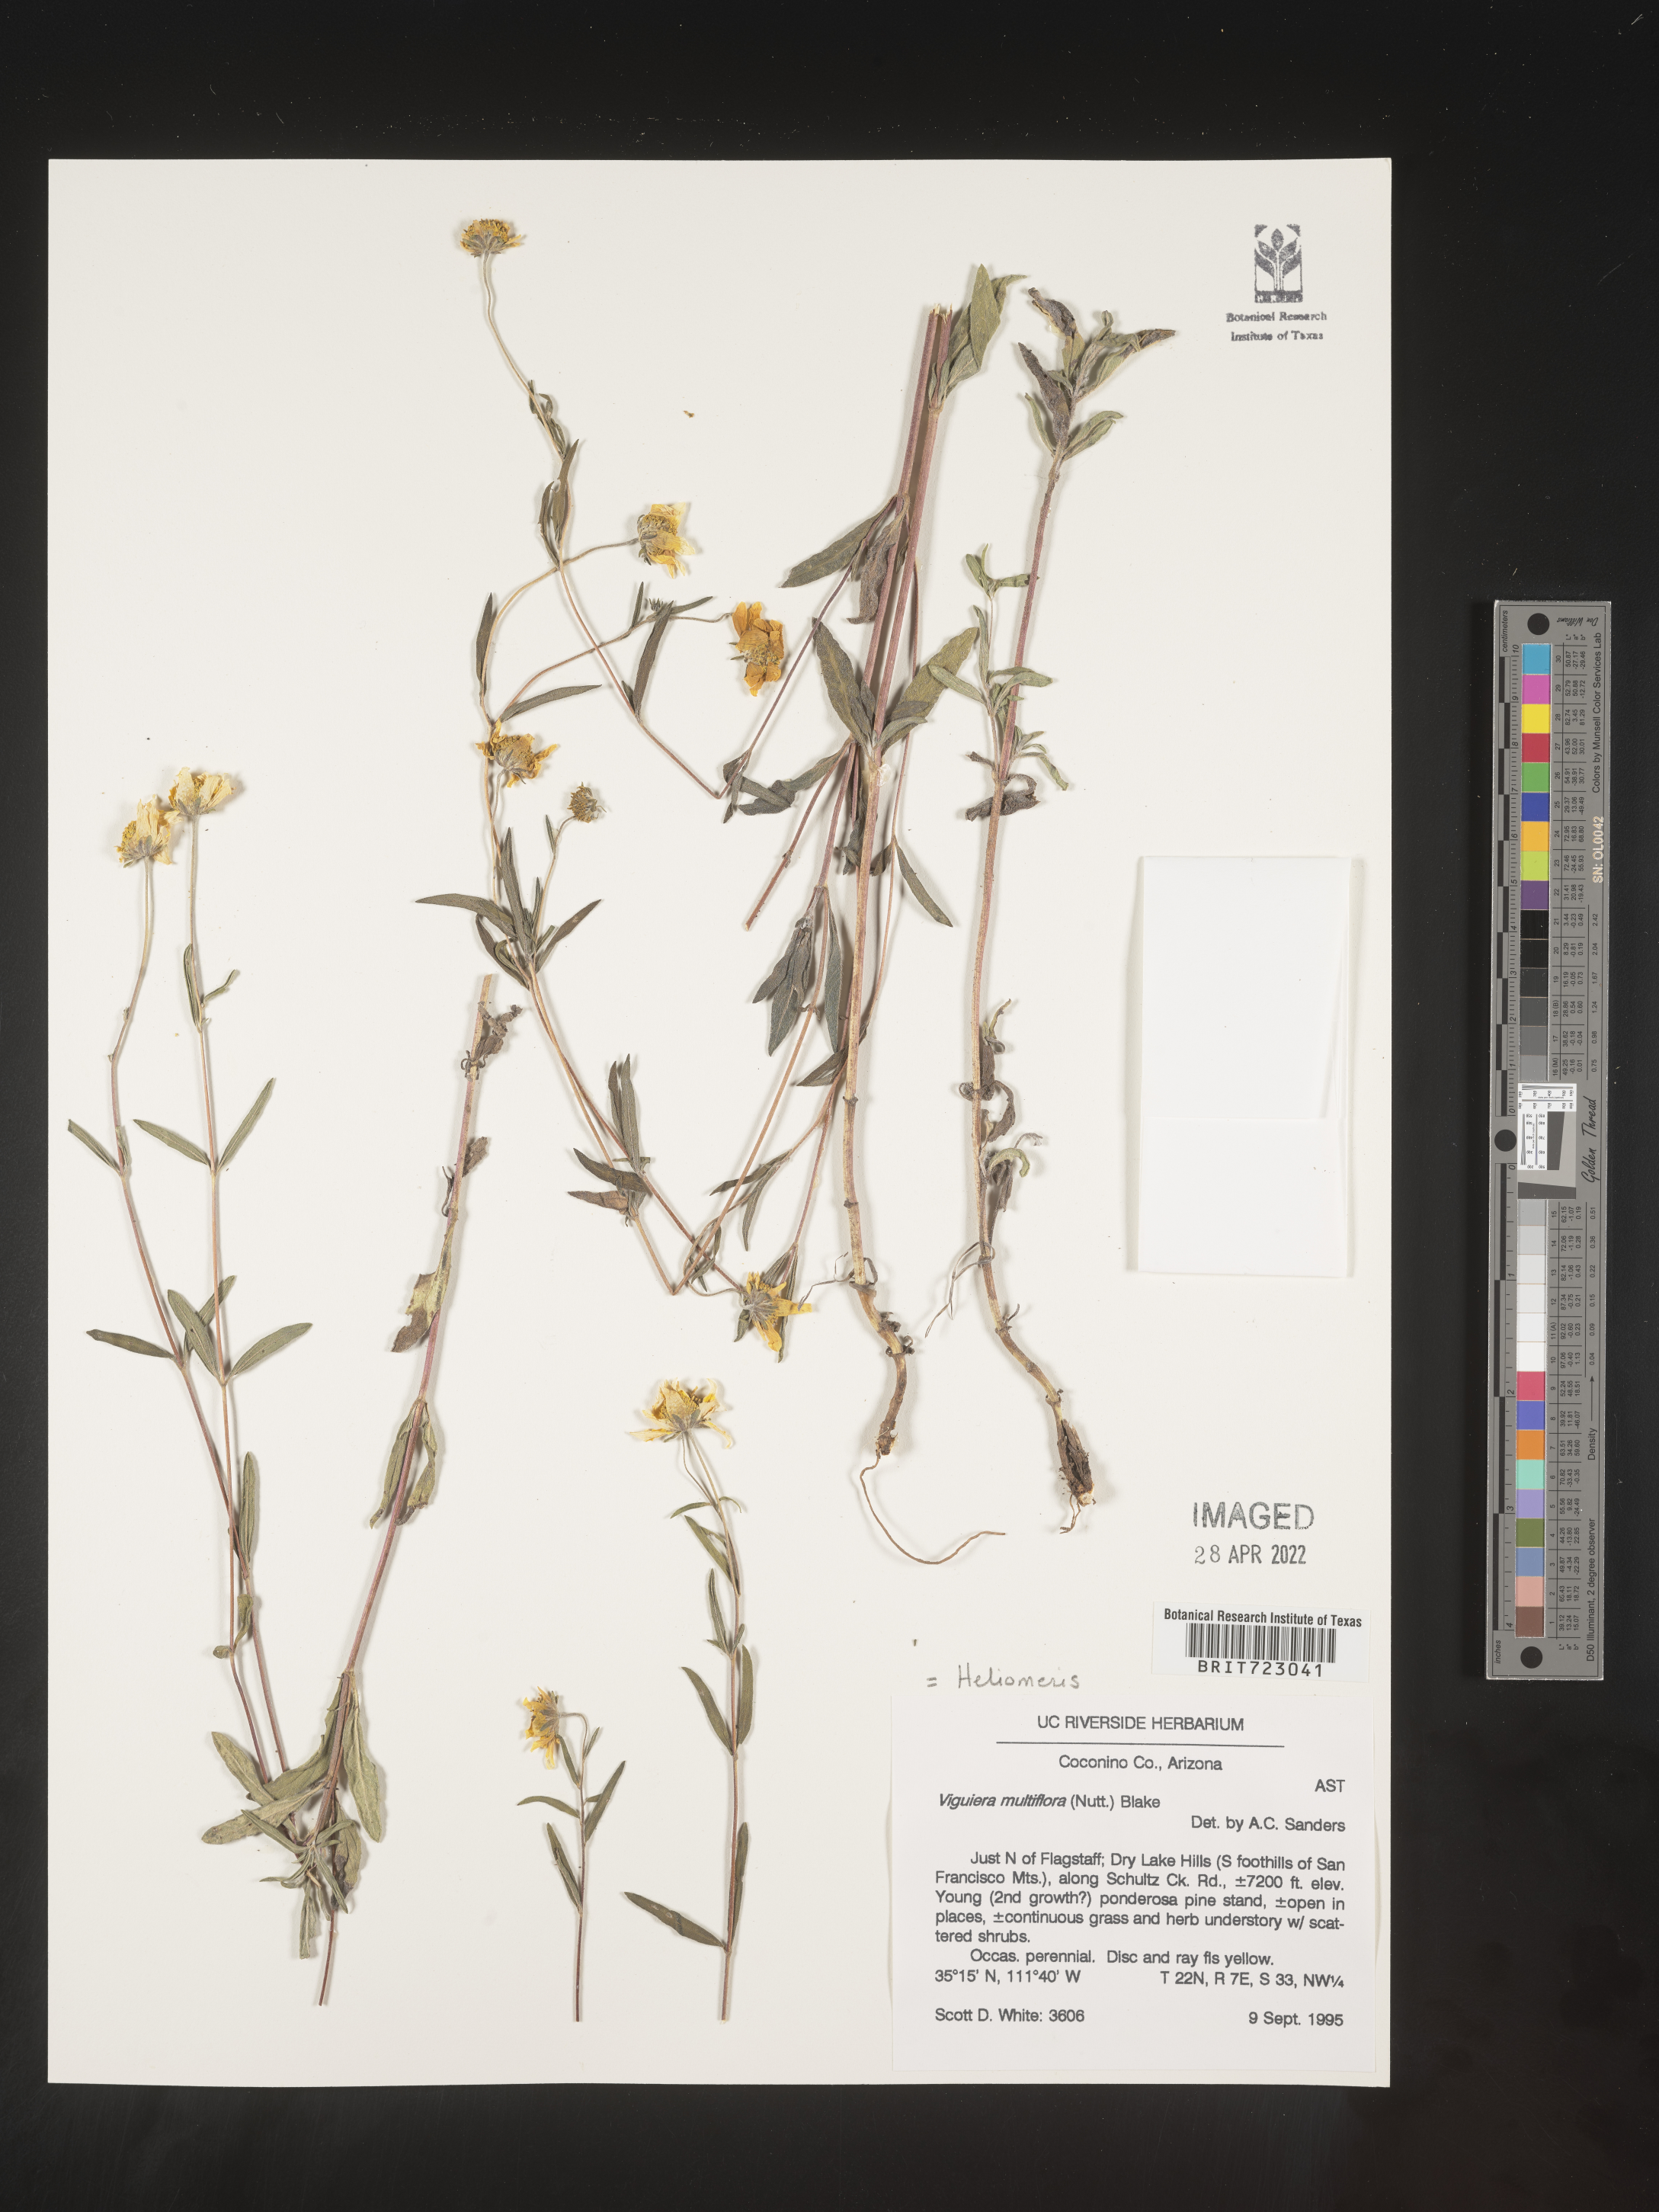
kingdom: Plantae
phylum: Tracheophyta
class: Magnoliopsida
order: Asterales
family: Asteraceae
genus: Heliomeris
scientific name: Heliomeris multiflora
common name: Showy goldeneye
